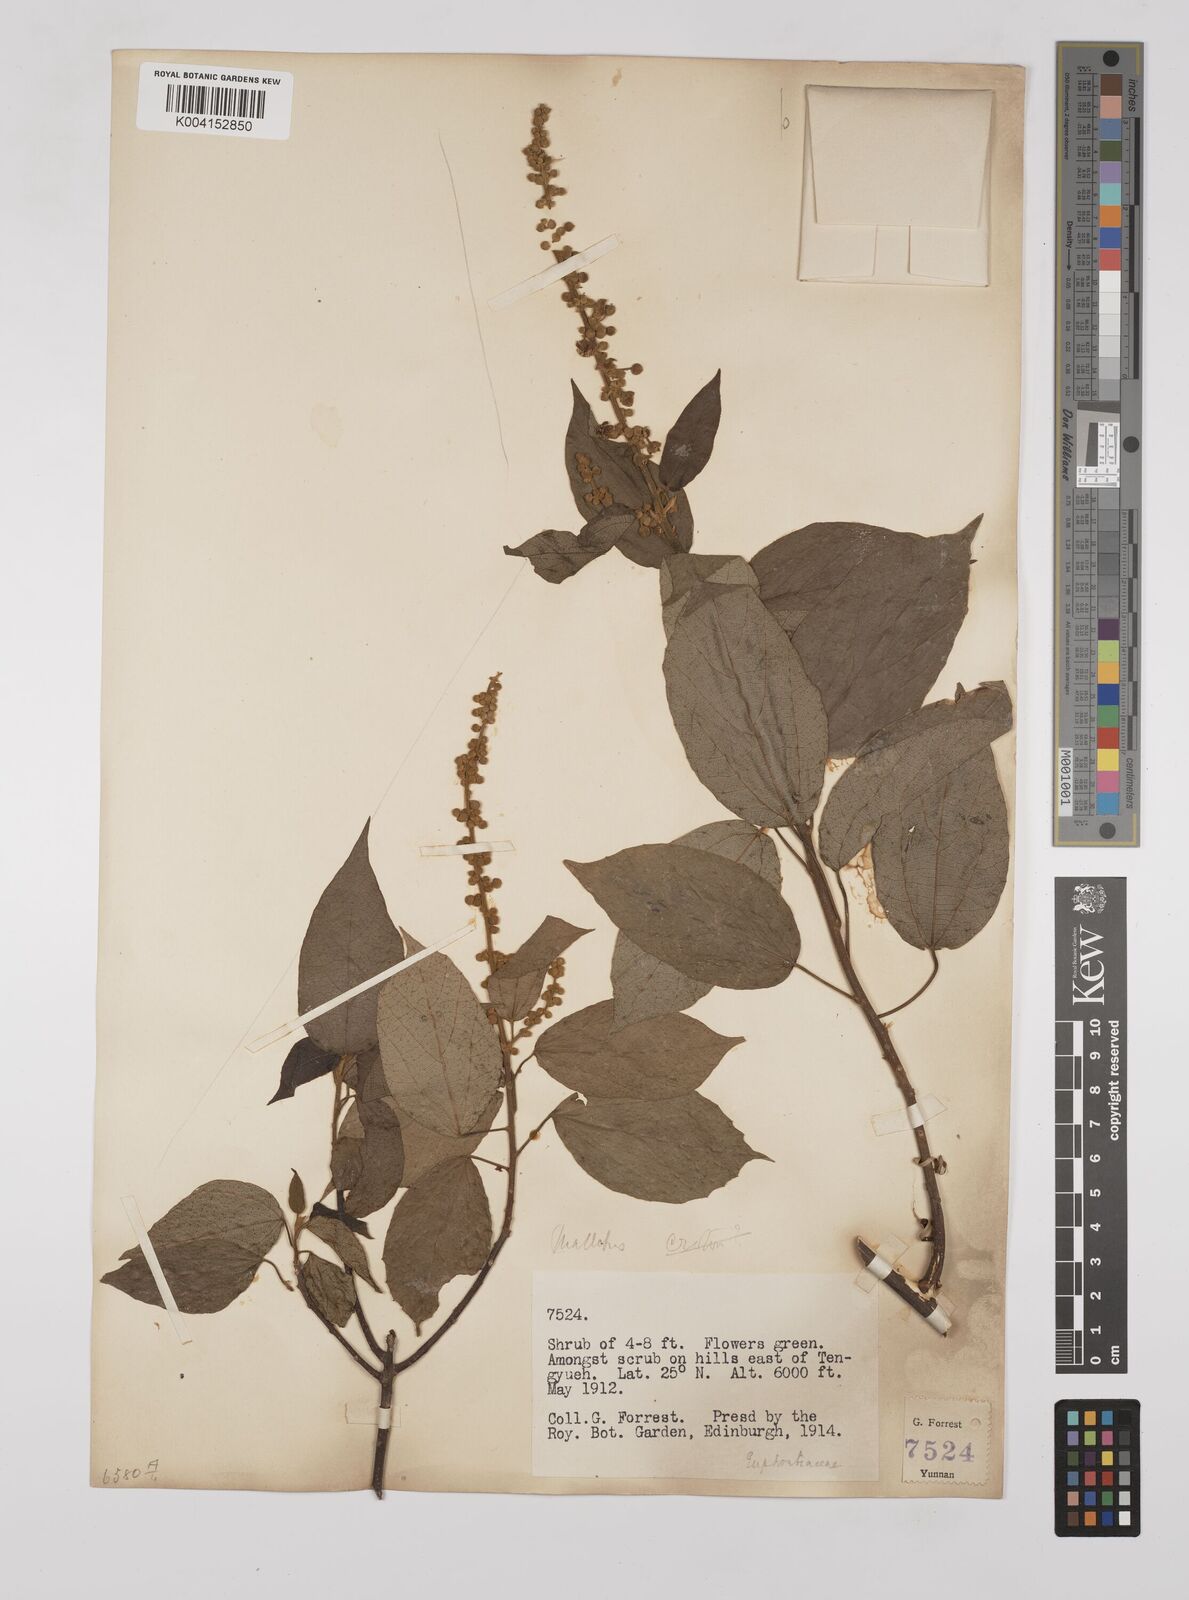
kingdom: Plantae
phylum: Tracheophyta
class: Magnoliopsida
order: Malpighiales
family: Euphorbiaceae
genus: Mallotus
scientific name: Mallotus illudens
